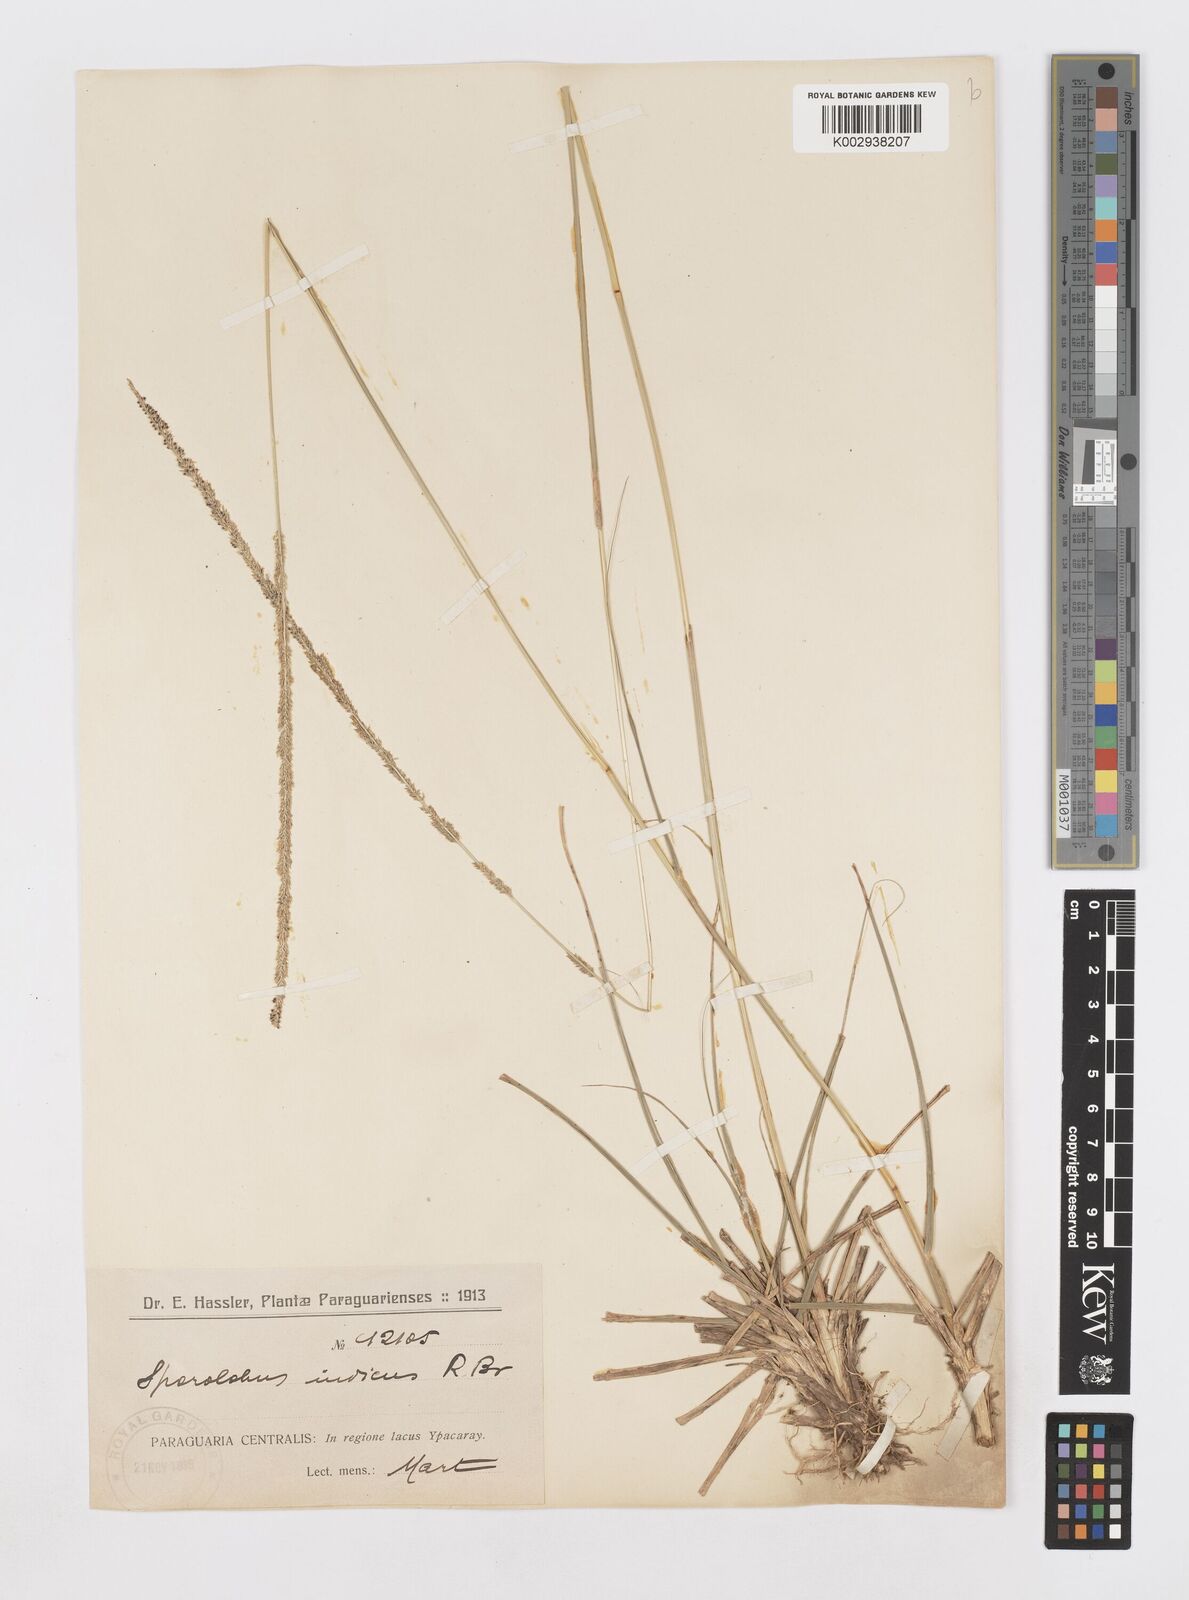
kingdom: Plantae
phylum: Tracheophyta
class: Liliopsida
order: Poales
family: Poaceae
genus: Sporobolus
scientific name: Sporobolus indicus
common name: Smut grass
